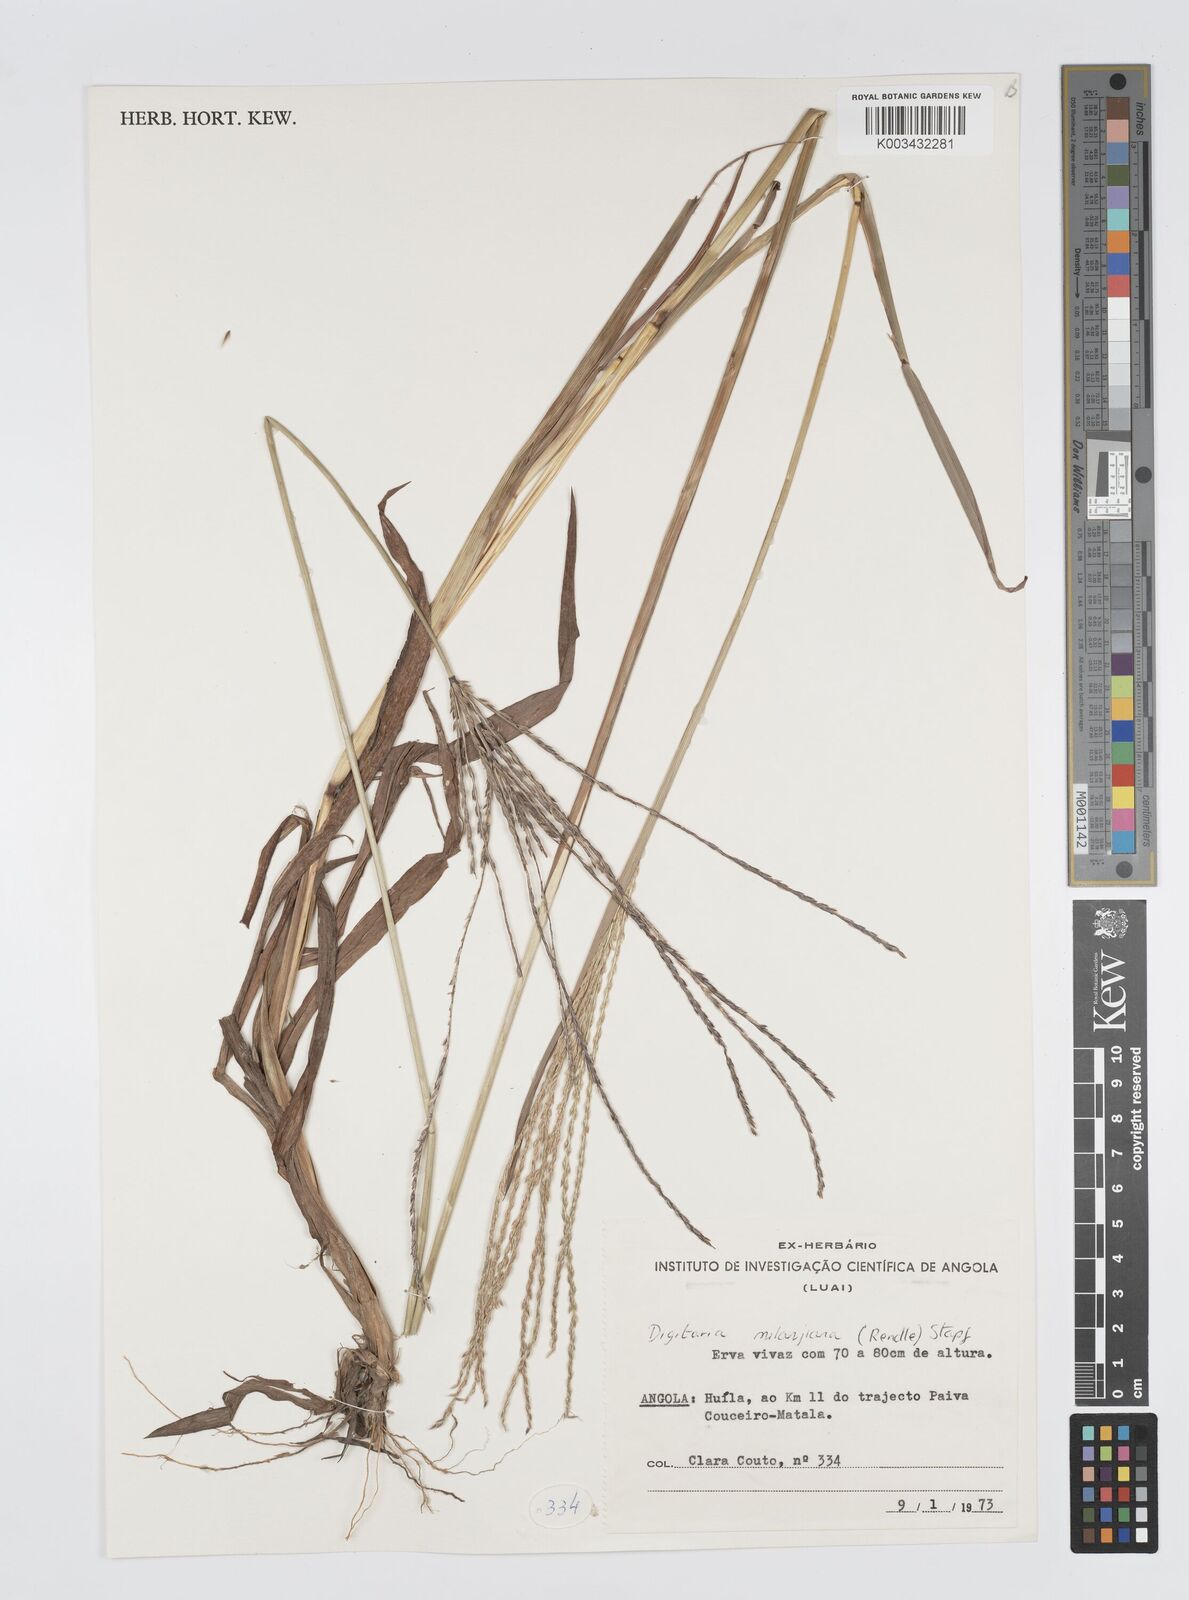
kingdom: Plantae
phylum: Tracheophyta
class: Liliopsida
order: Poales
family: Poaceae
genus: Digitaria
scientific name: Digitaria milanjiana
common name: Madagascar crabgrass
